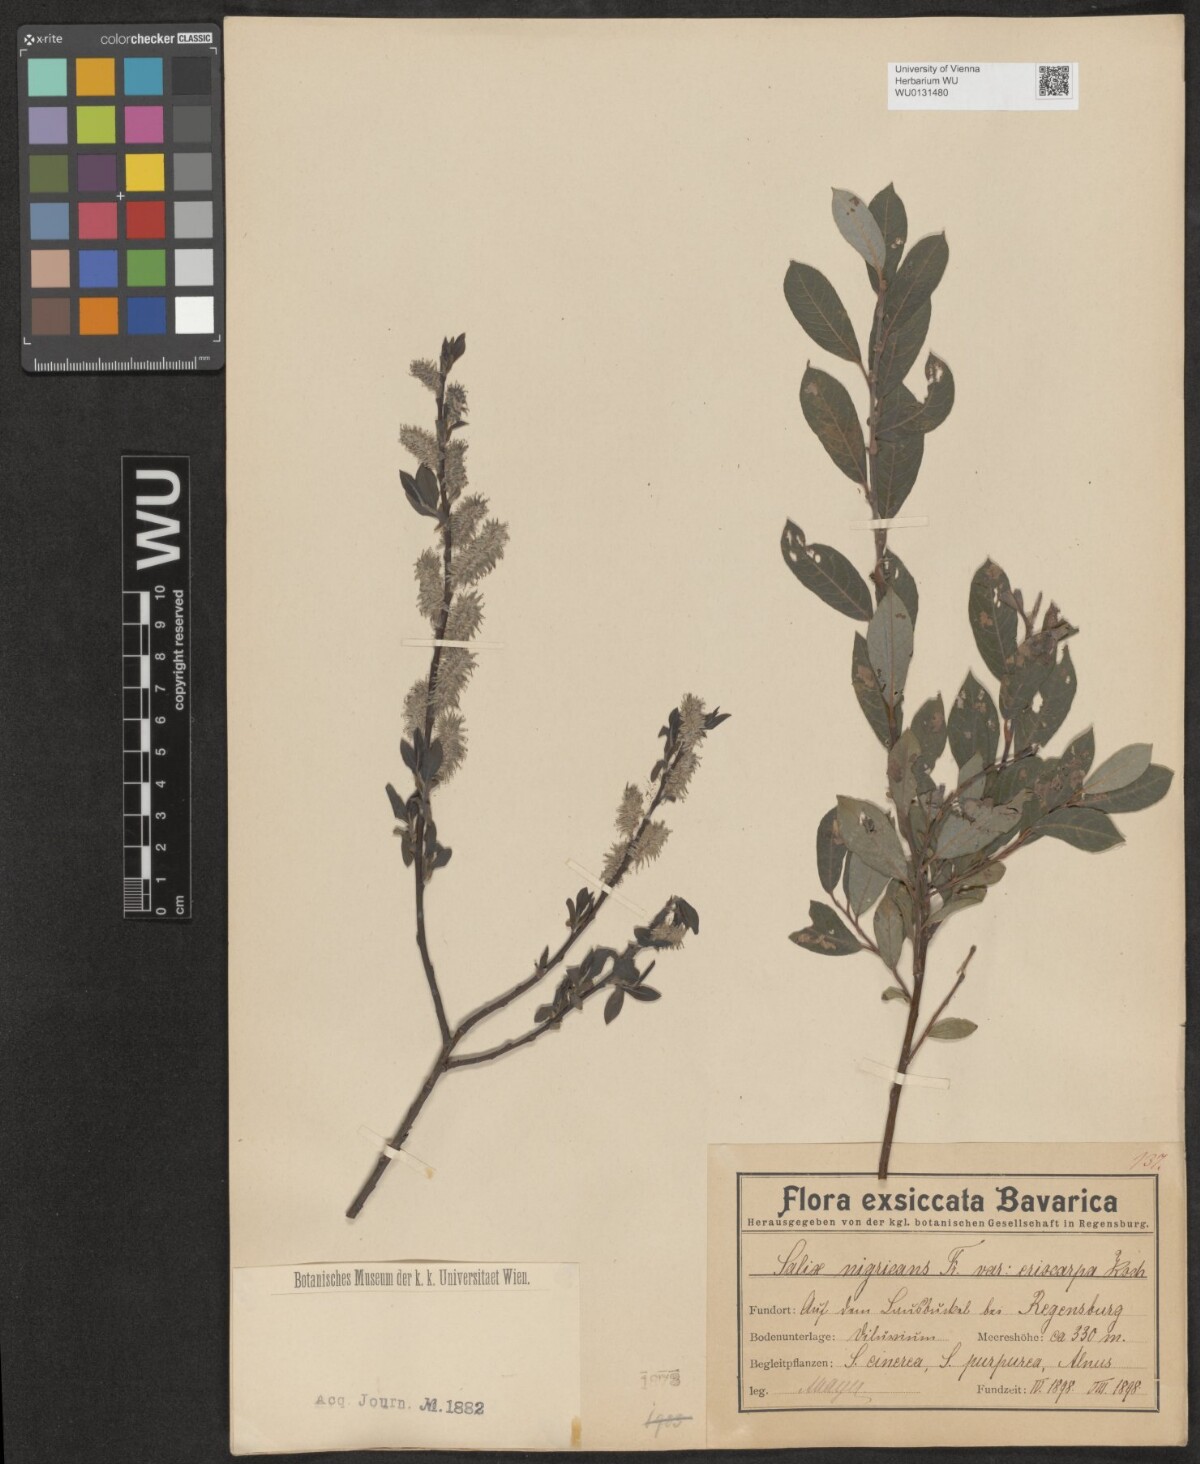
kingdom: Plantae
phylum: Tracheophyta
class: Magnoliopsida
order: Malpighiales
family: Salicaceae
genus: Salix
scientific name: Salix myrsinifolia
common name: Dark-leaved willow
